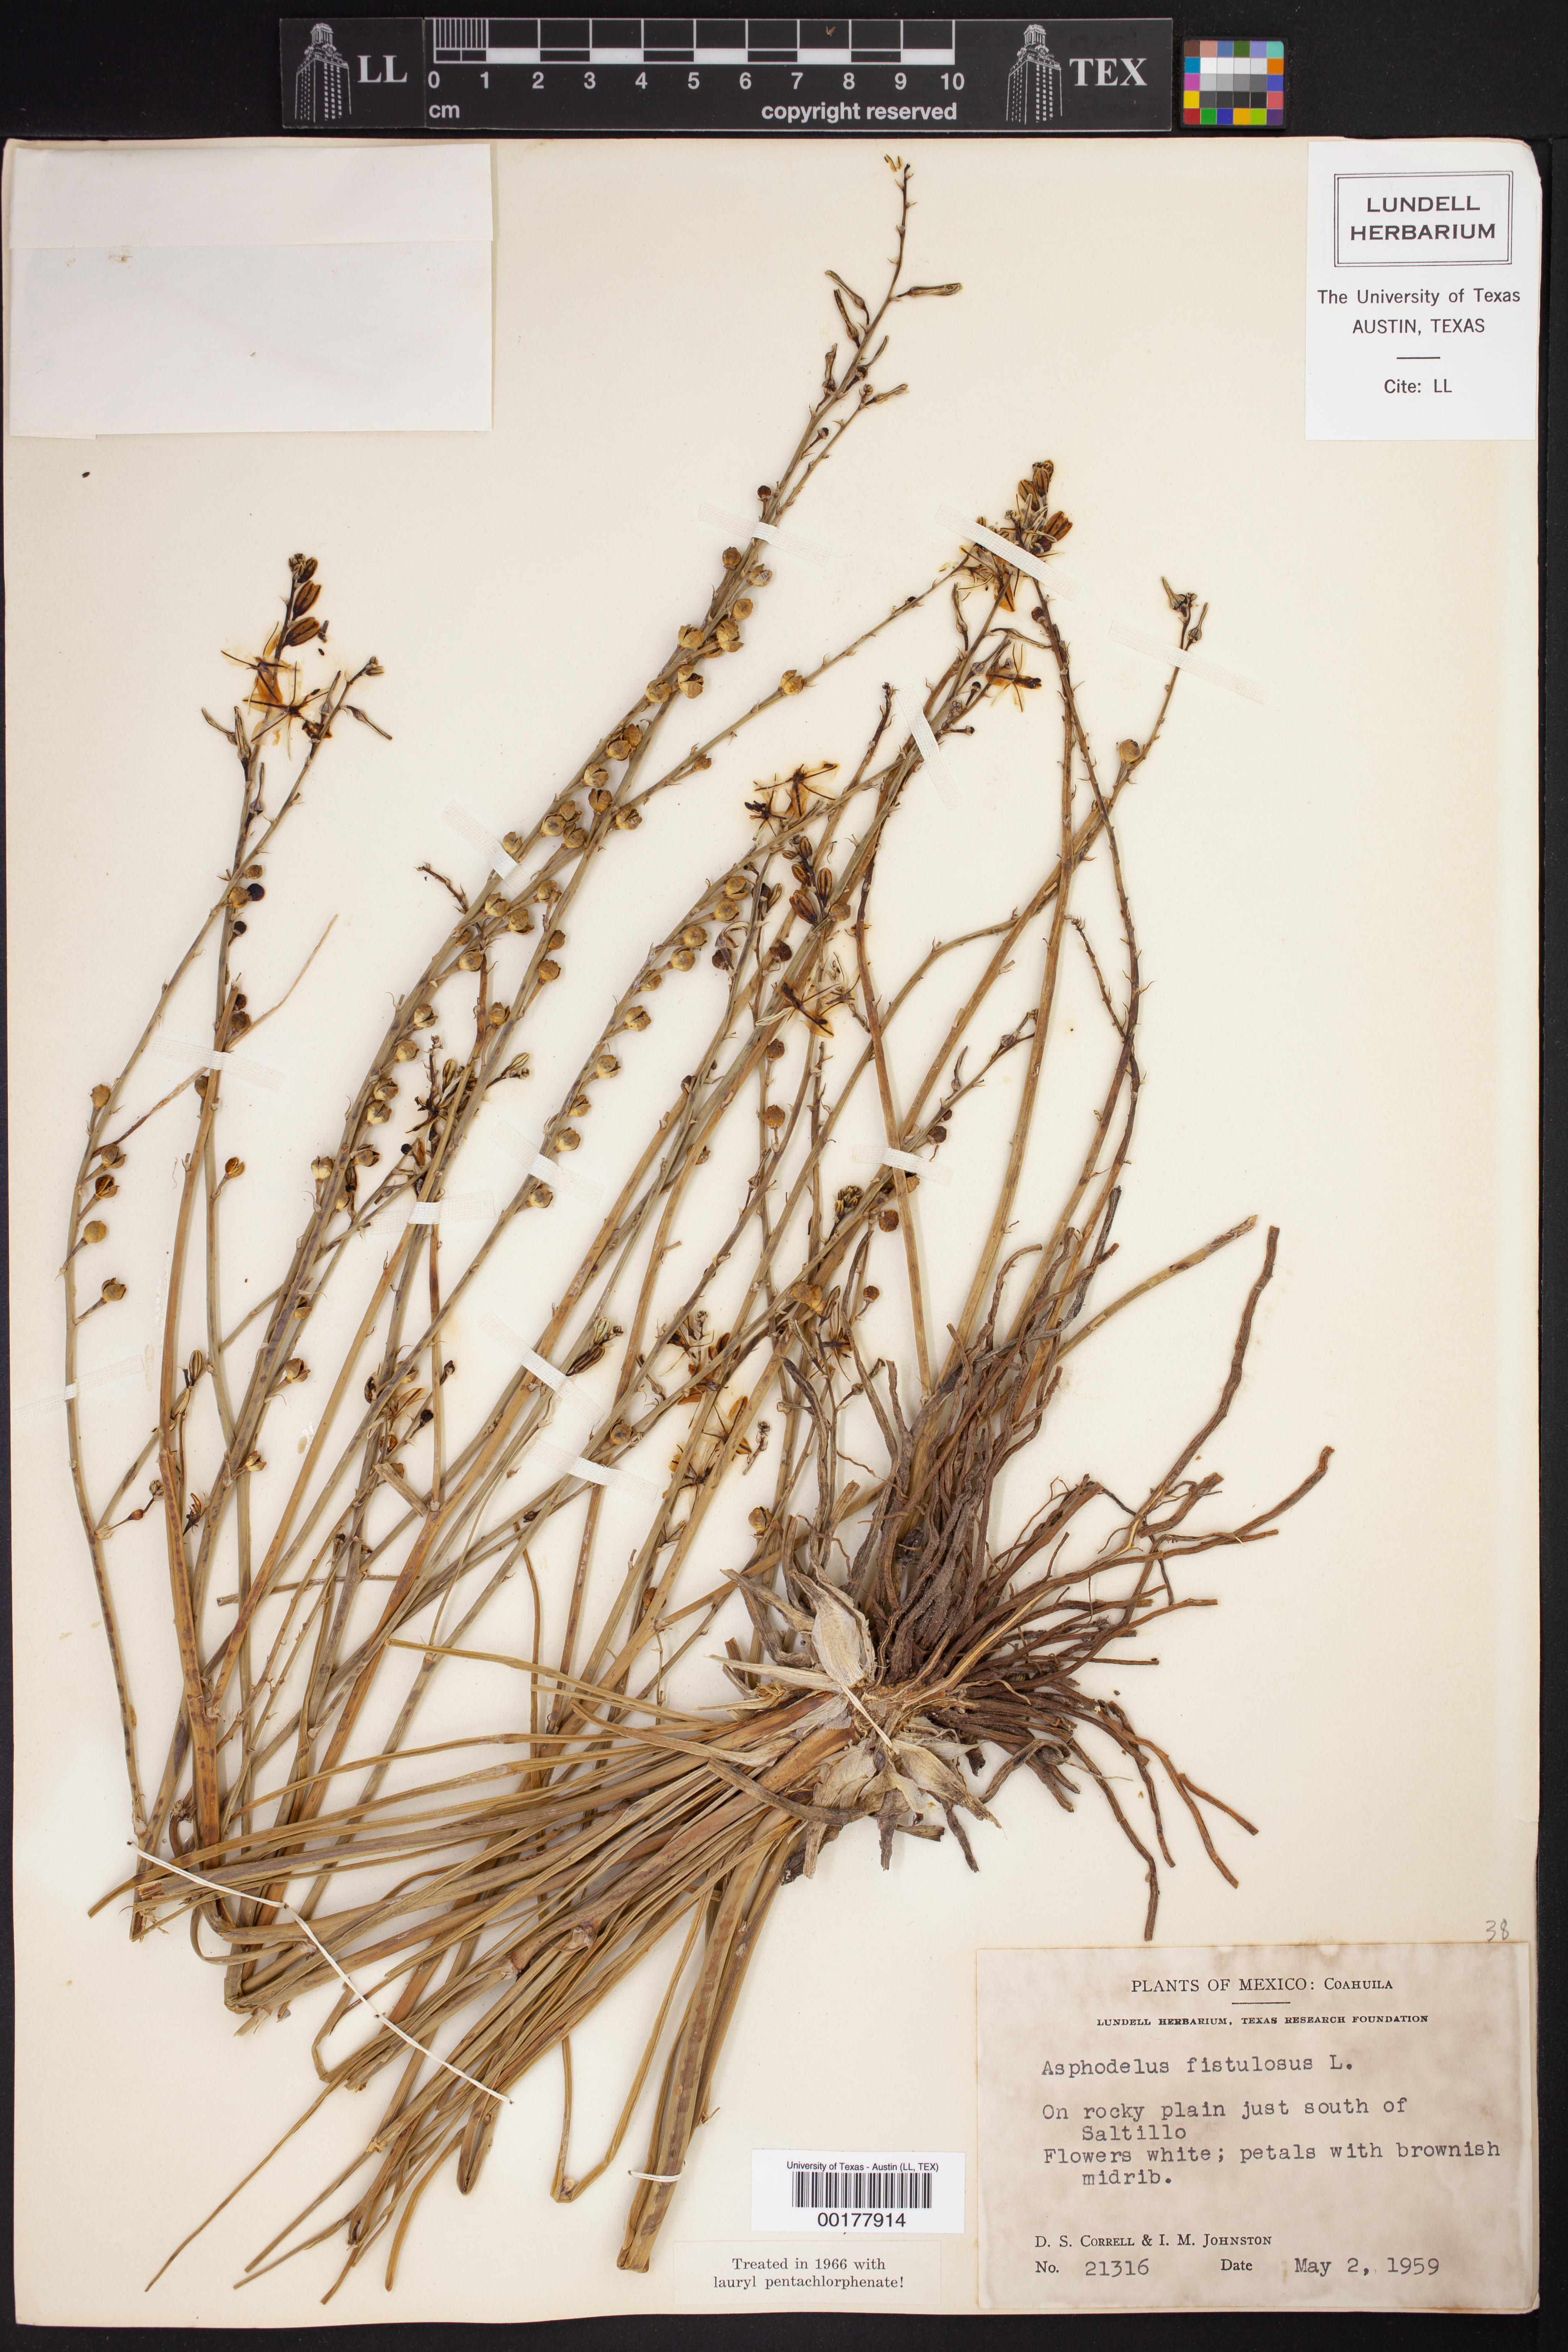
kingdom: Plantae
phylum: Tracheophyta
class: Liliopsida
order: Asparagales
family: Asphodelaceae
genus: Asphodelus
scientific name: Asphodelus fistulosus
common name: Onionweed
